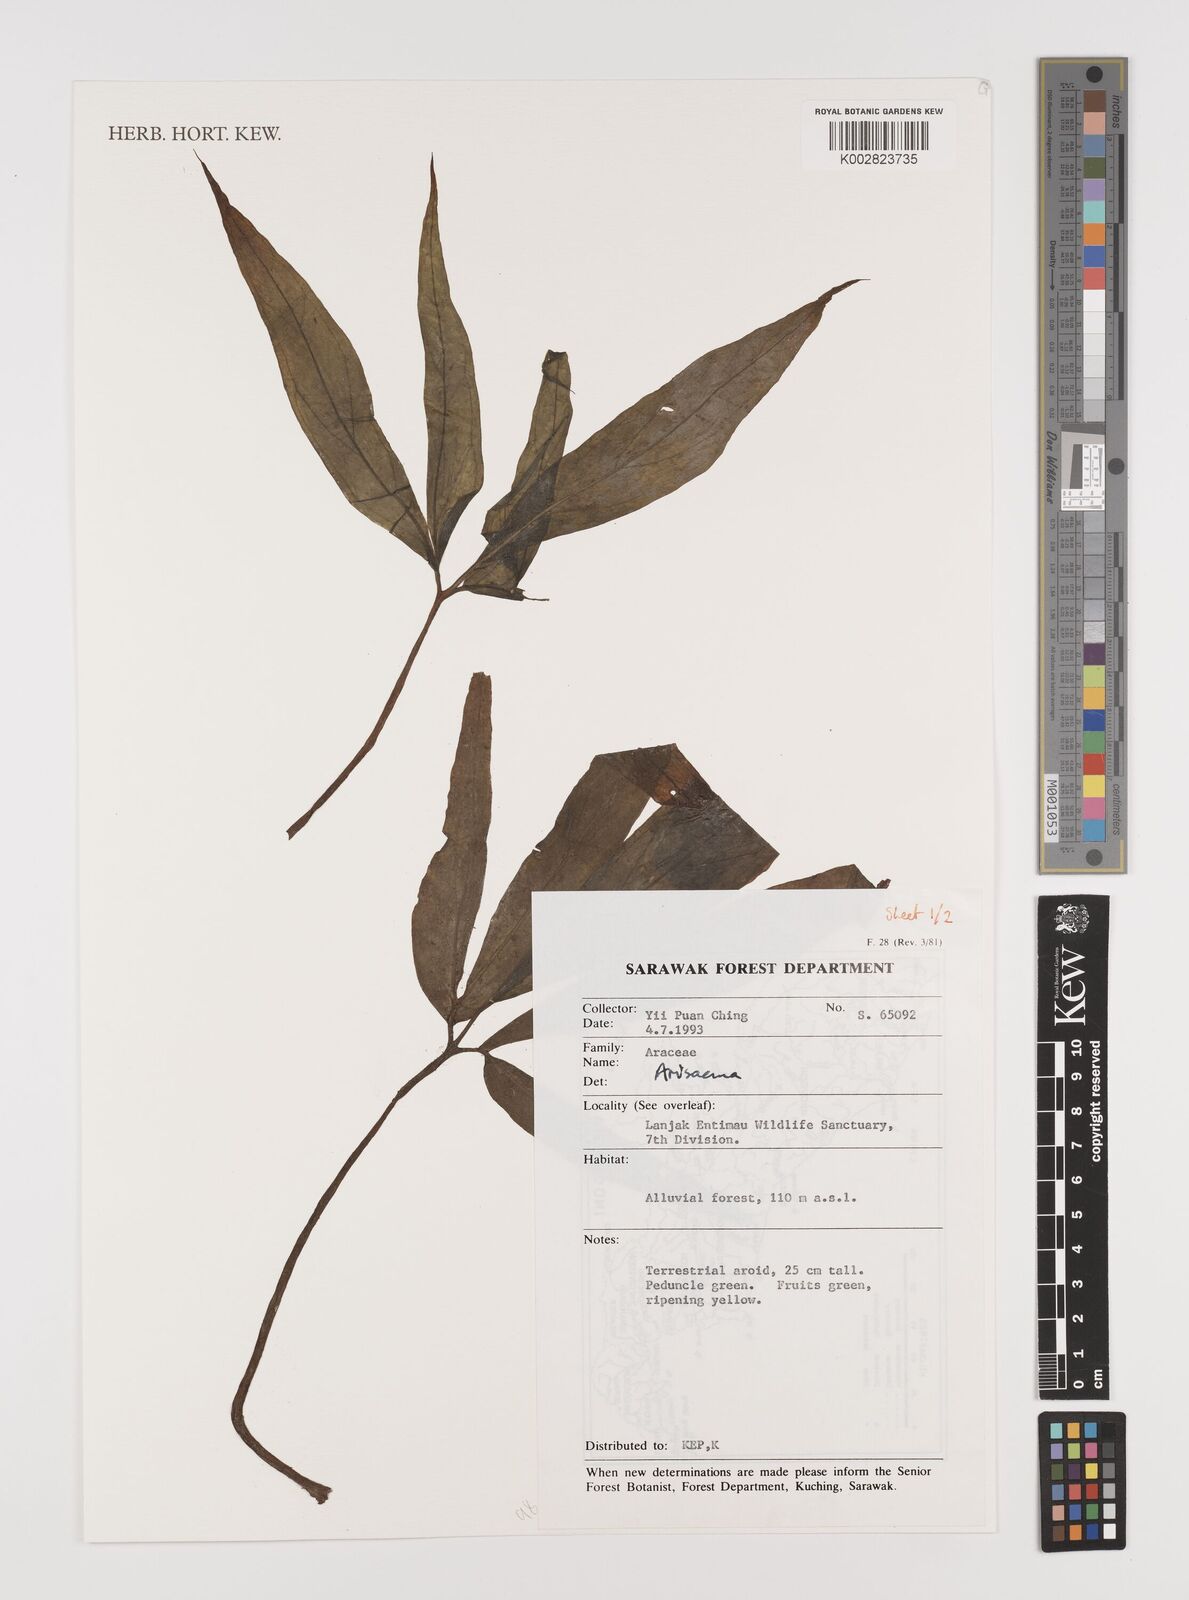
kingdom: Plantae
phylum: Tracheophyta
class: Liliopsida
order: Alismatales
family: Araceae
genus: Arisaema
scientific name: Arisaema
